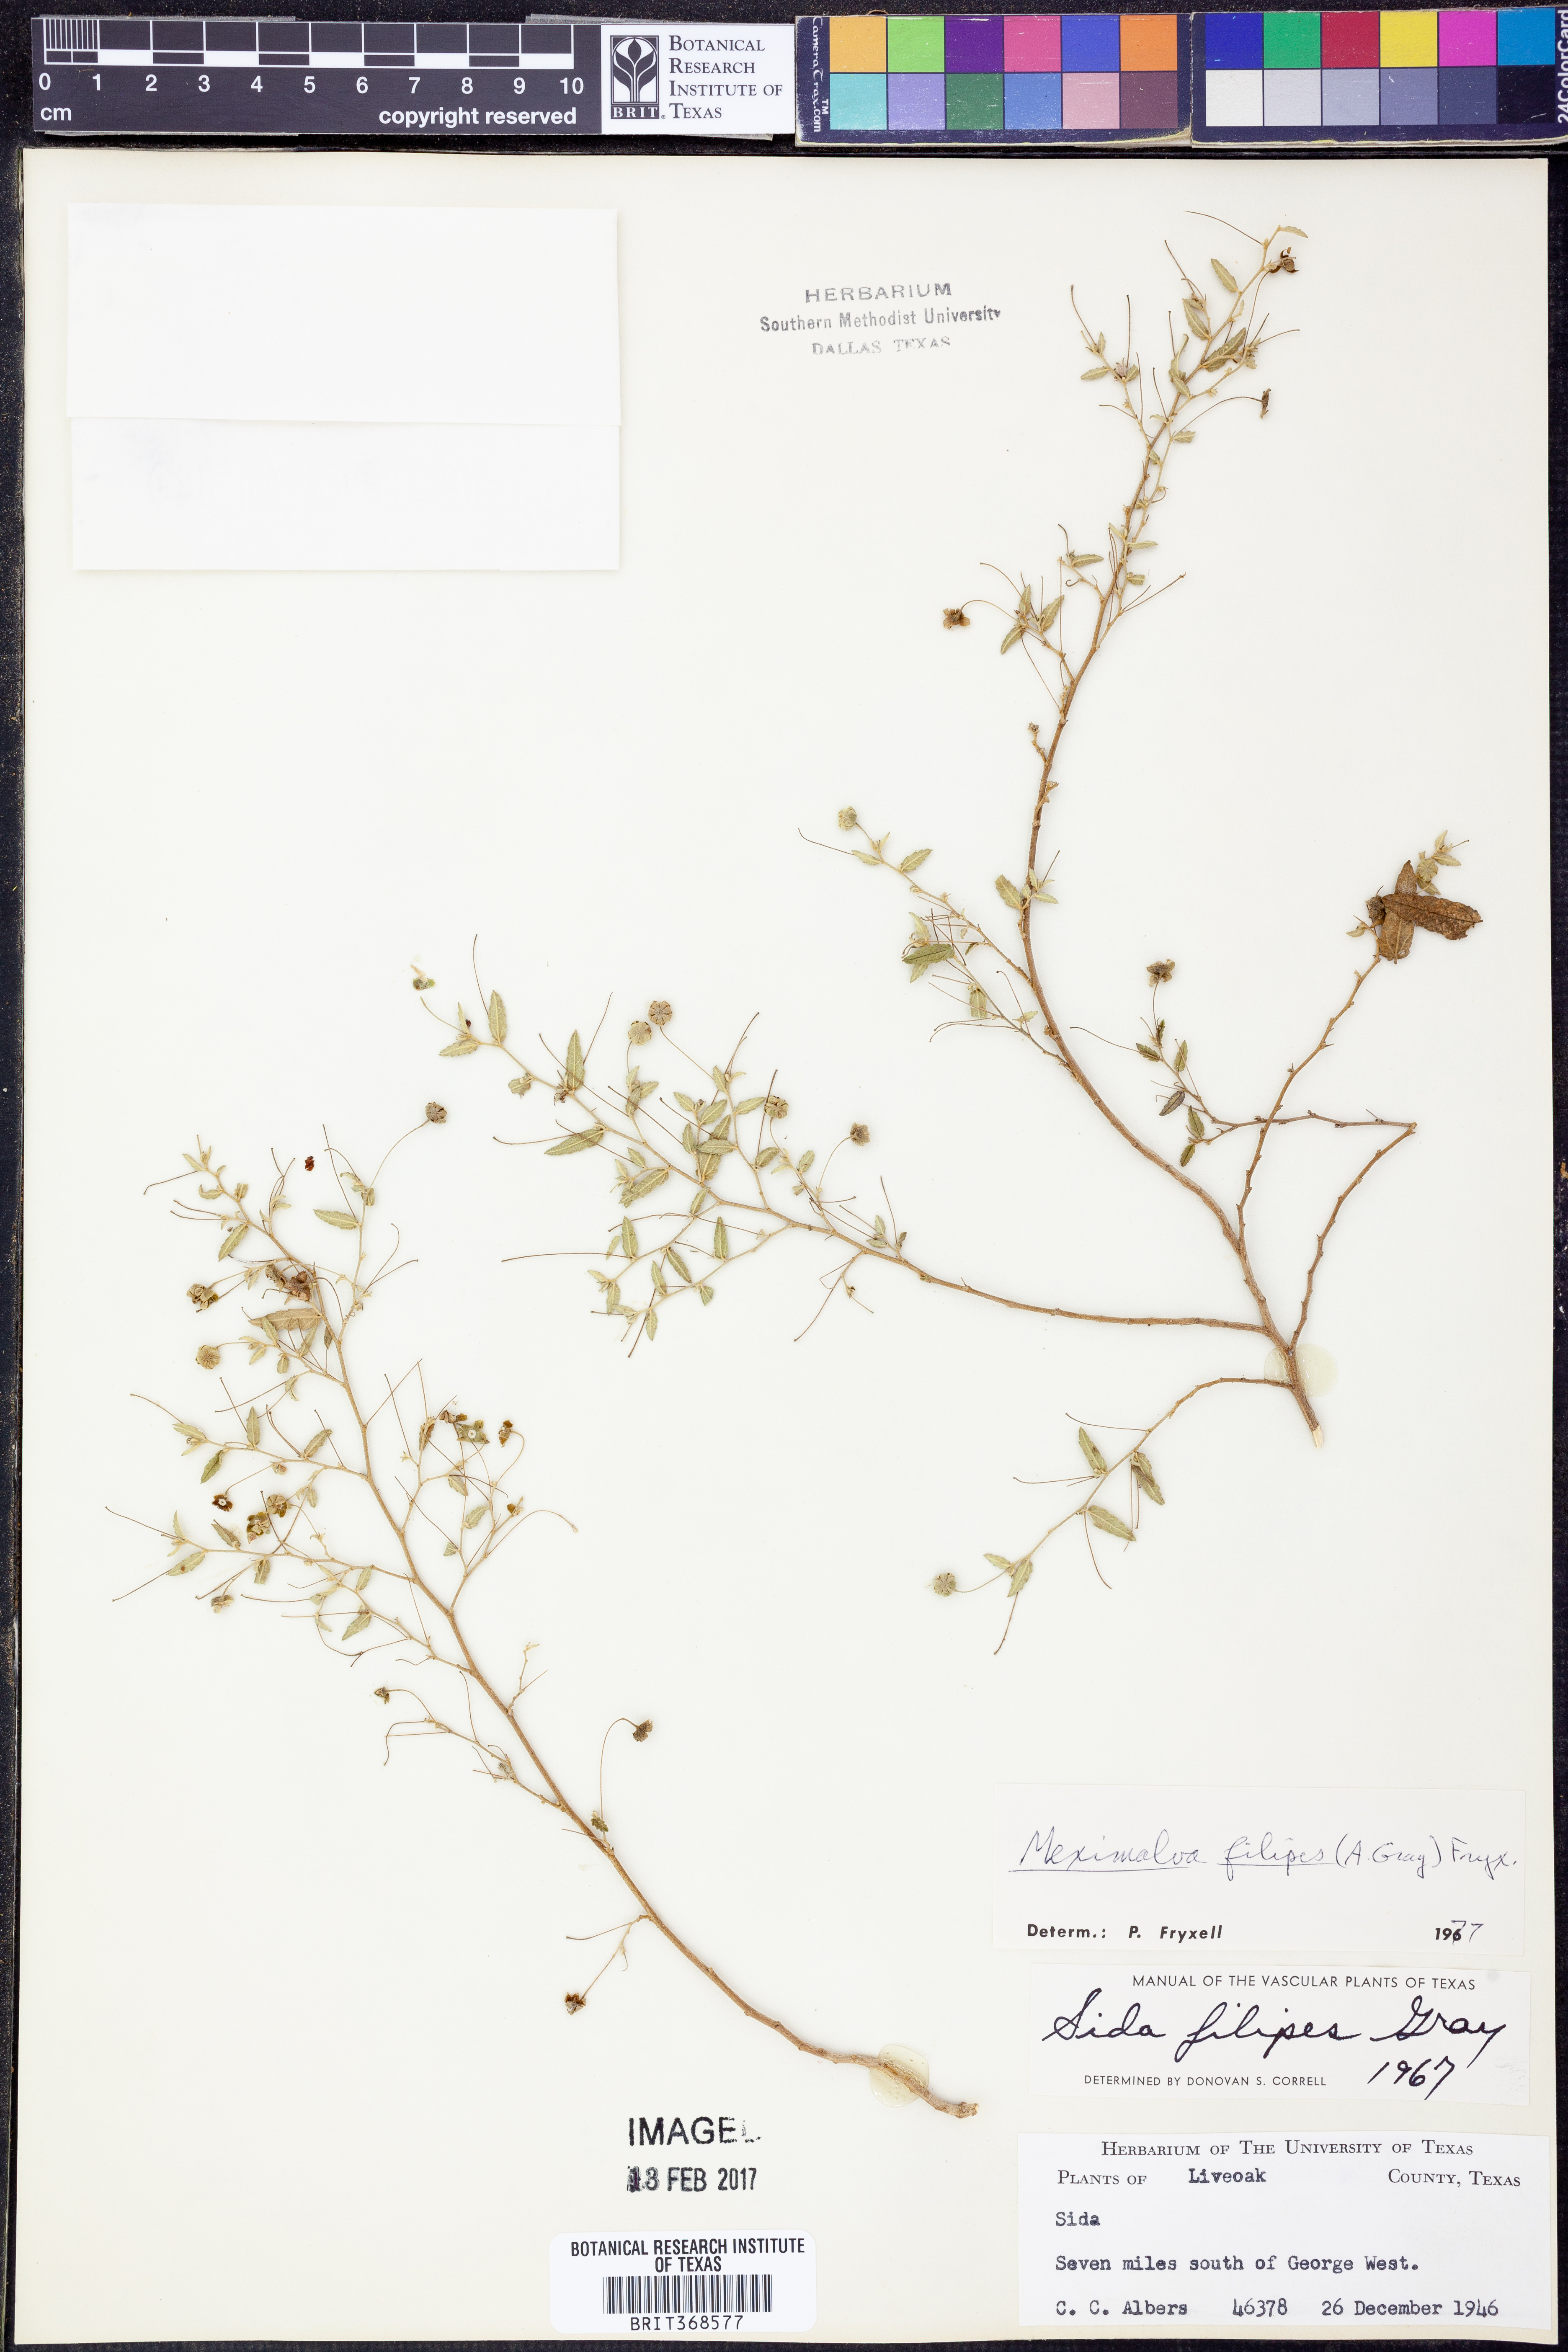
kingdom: Plantae
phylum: Tracheophyta
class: Magnoliopsida
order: Malvales
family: Malvaceae
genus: Meximalva
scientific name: Meximalva filipes
